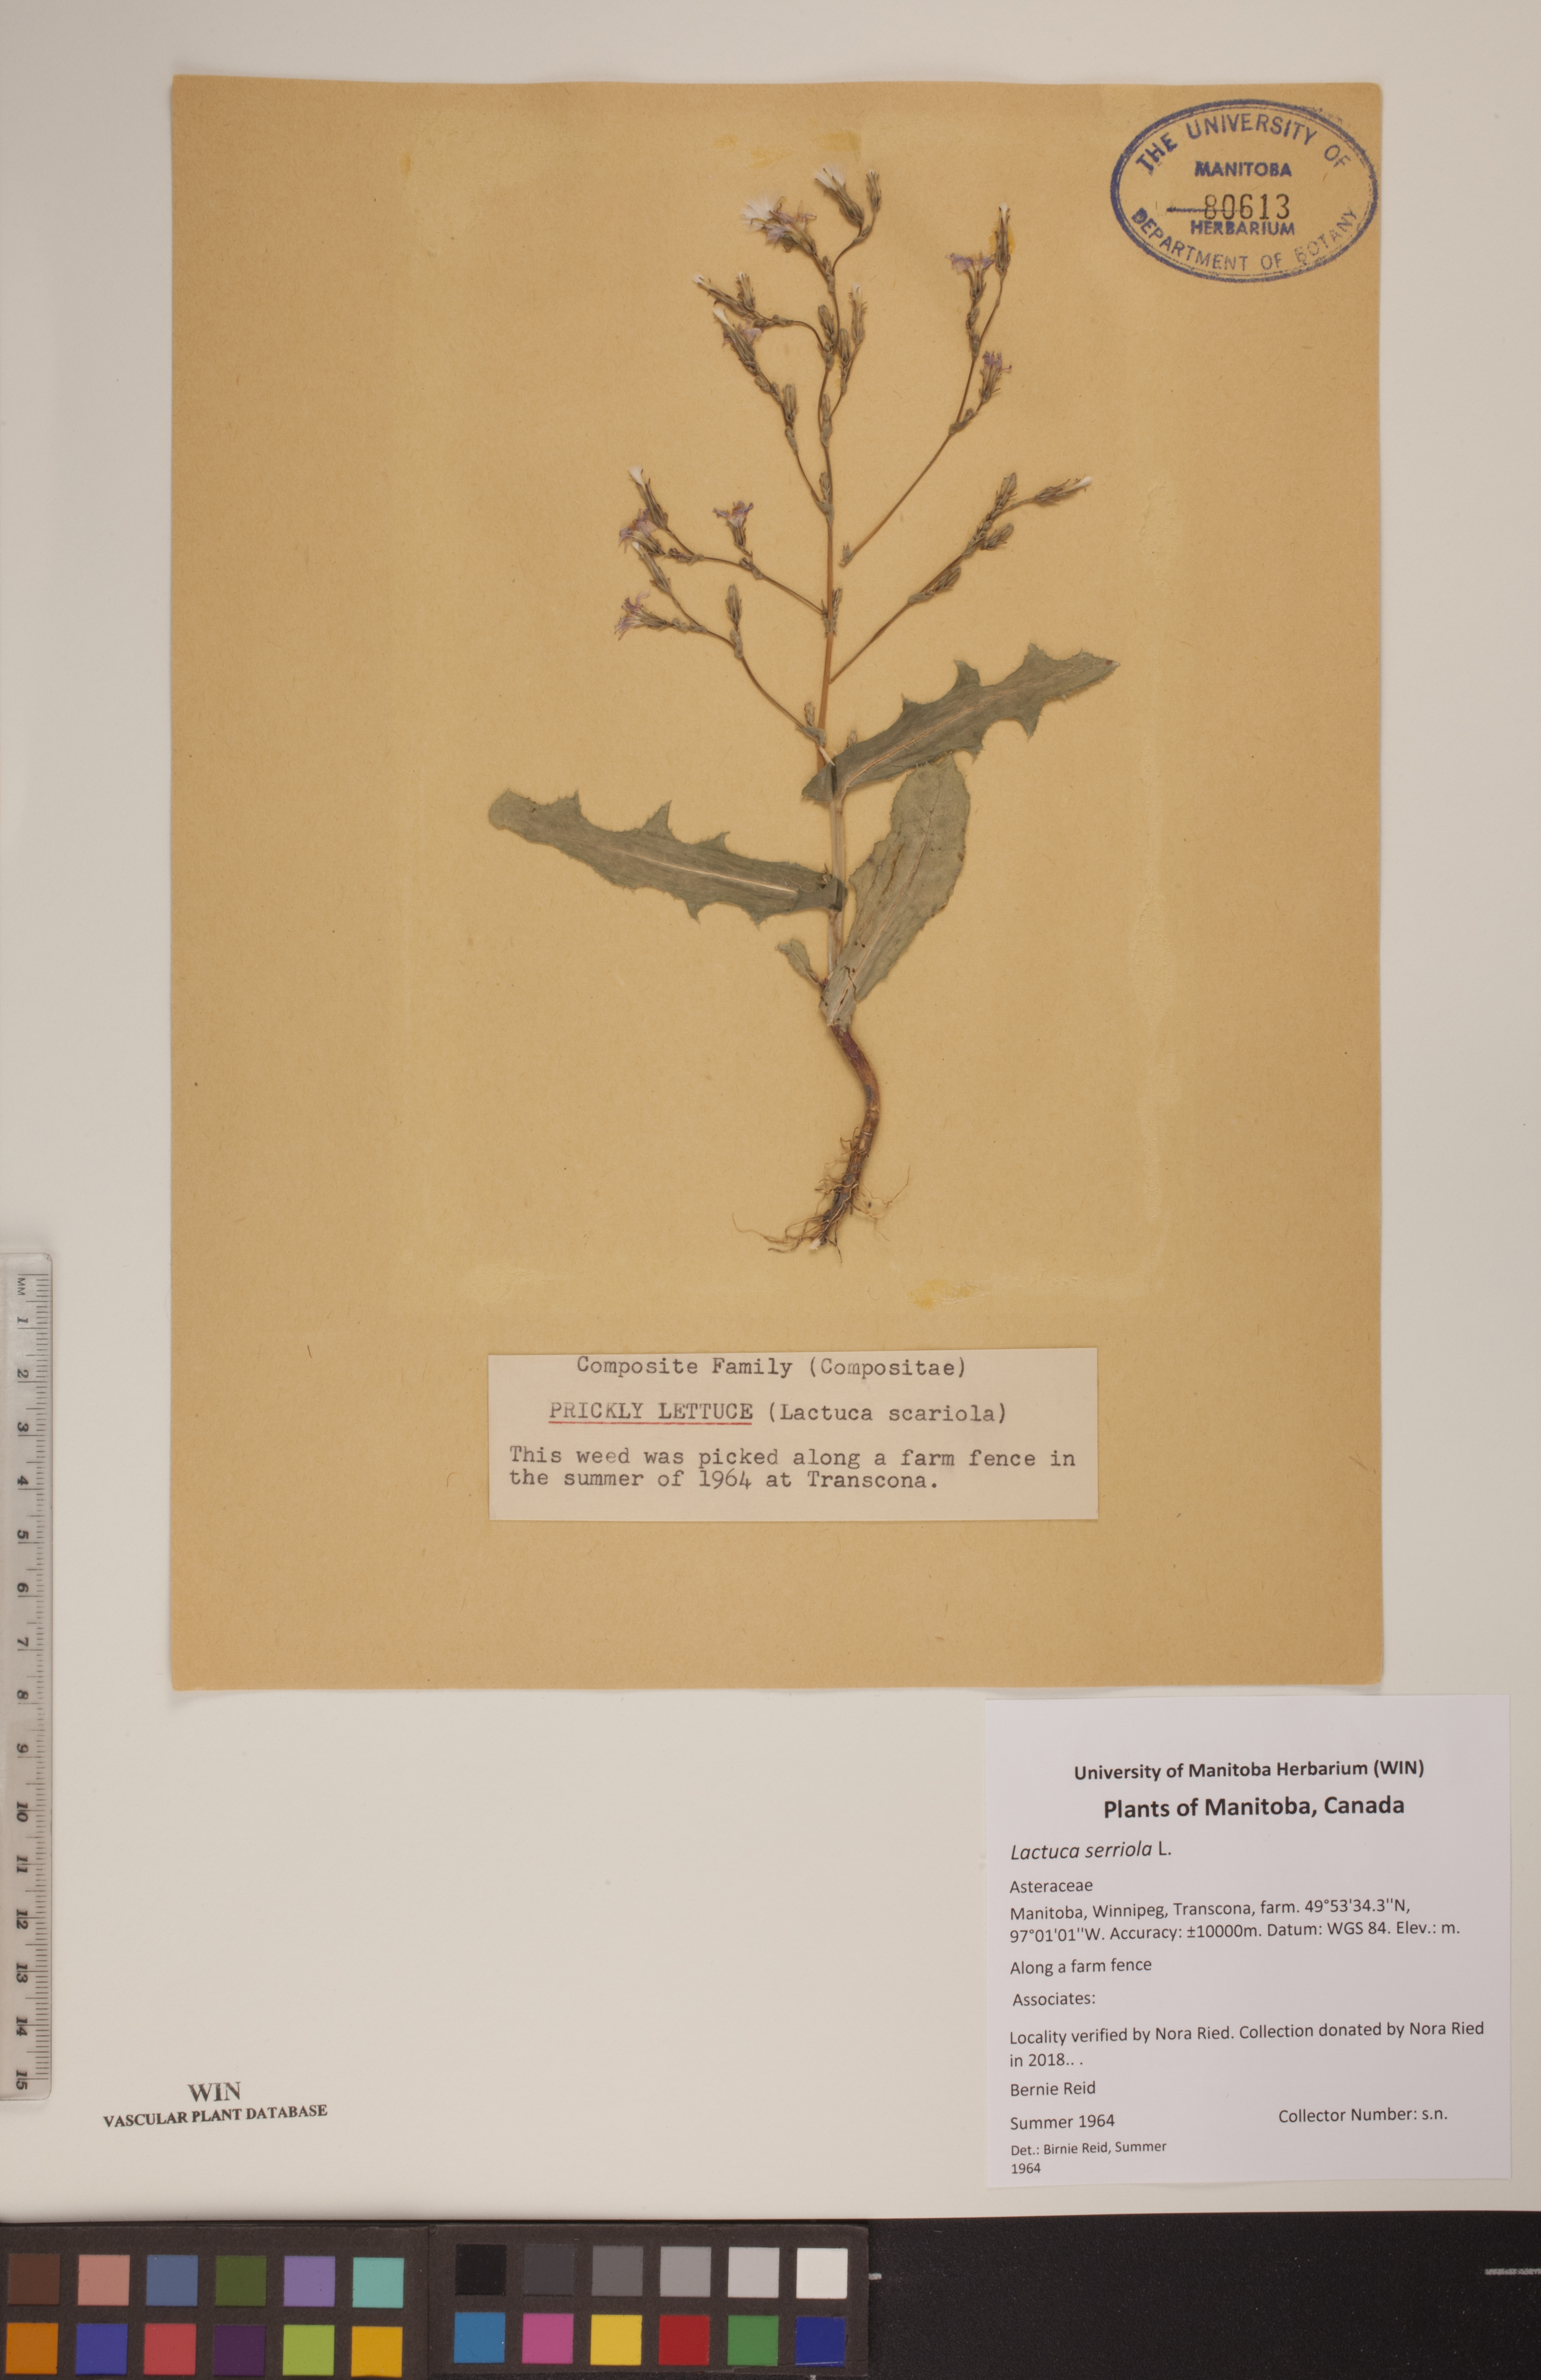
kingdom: Plantae
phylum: Tracheophyta
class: Magnoliopsida
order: Asterales
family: Asteraceae
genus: Lactuca
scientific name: Lactuca serriola
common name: Prickly lettuce
